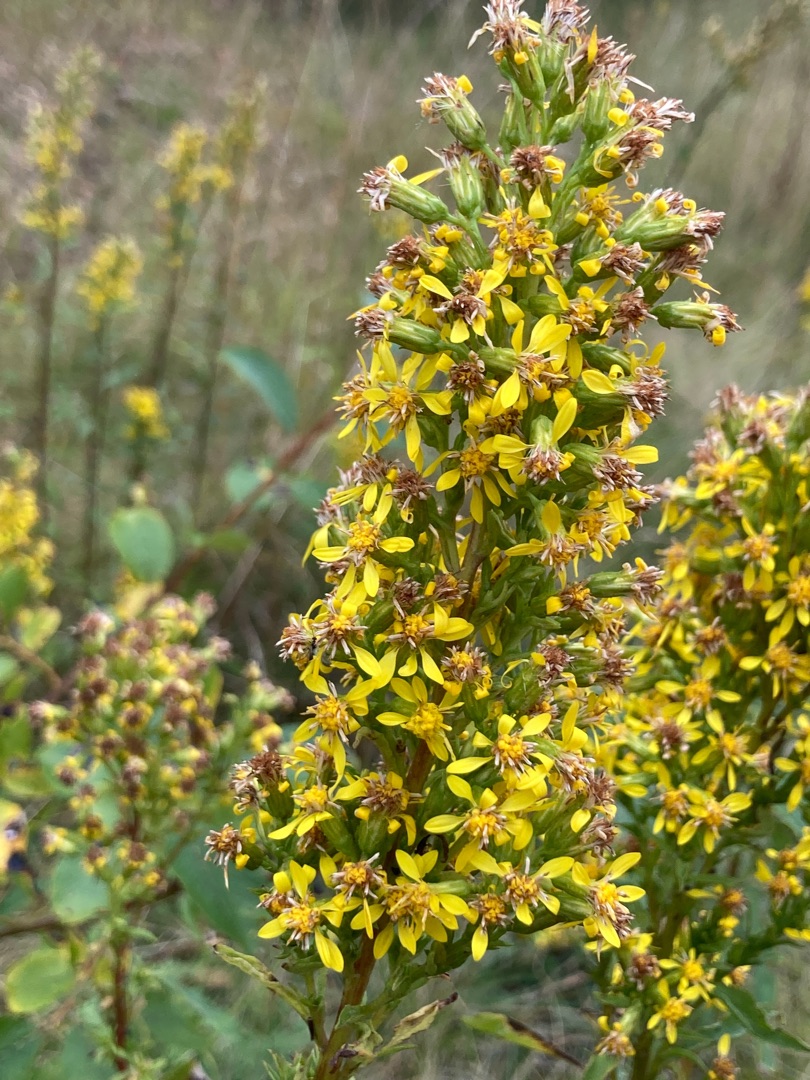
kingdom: Plantae
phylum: Tracheophyta
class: Magnoliopsida
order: Asterales
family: Asteraceae
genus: Solidago
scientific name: Solidago virgaurea
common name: Almindelig gyldenris
